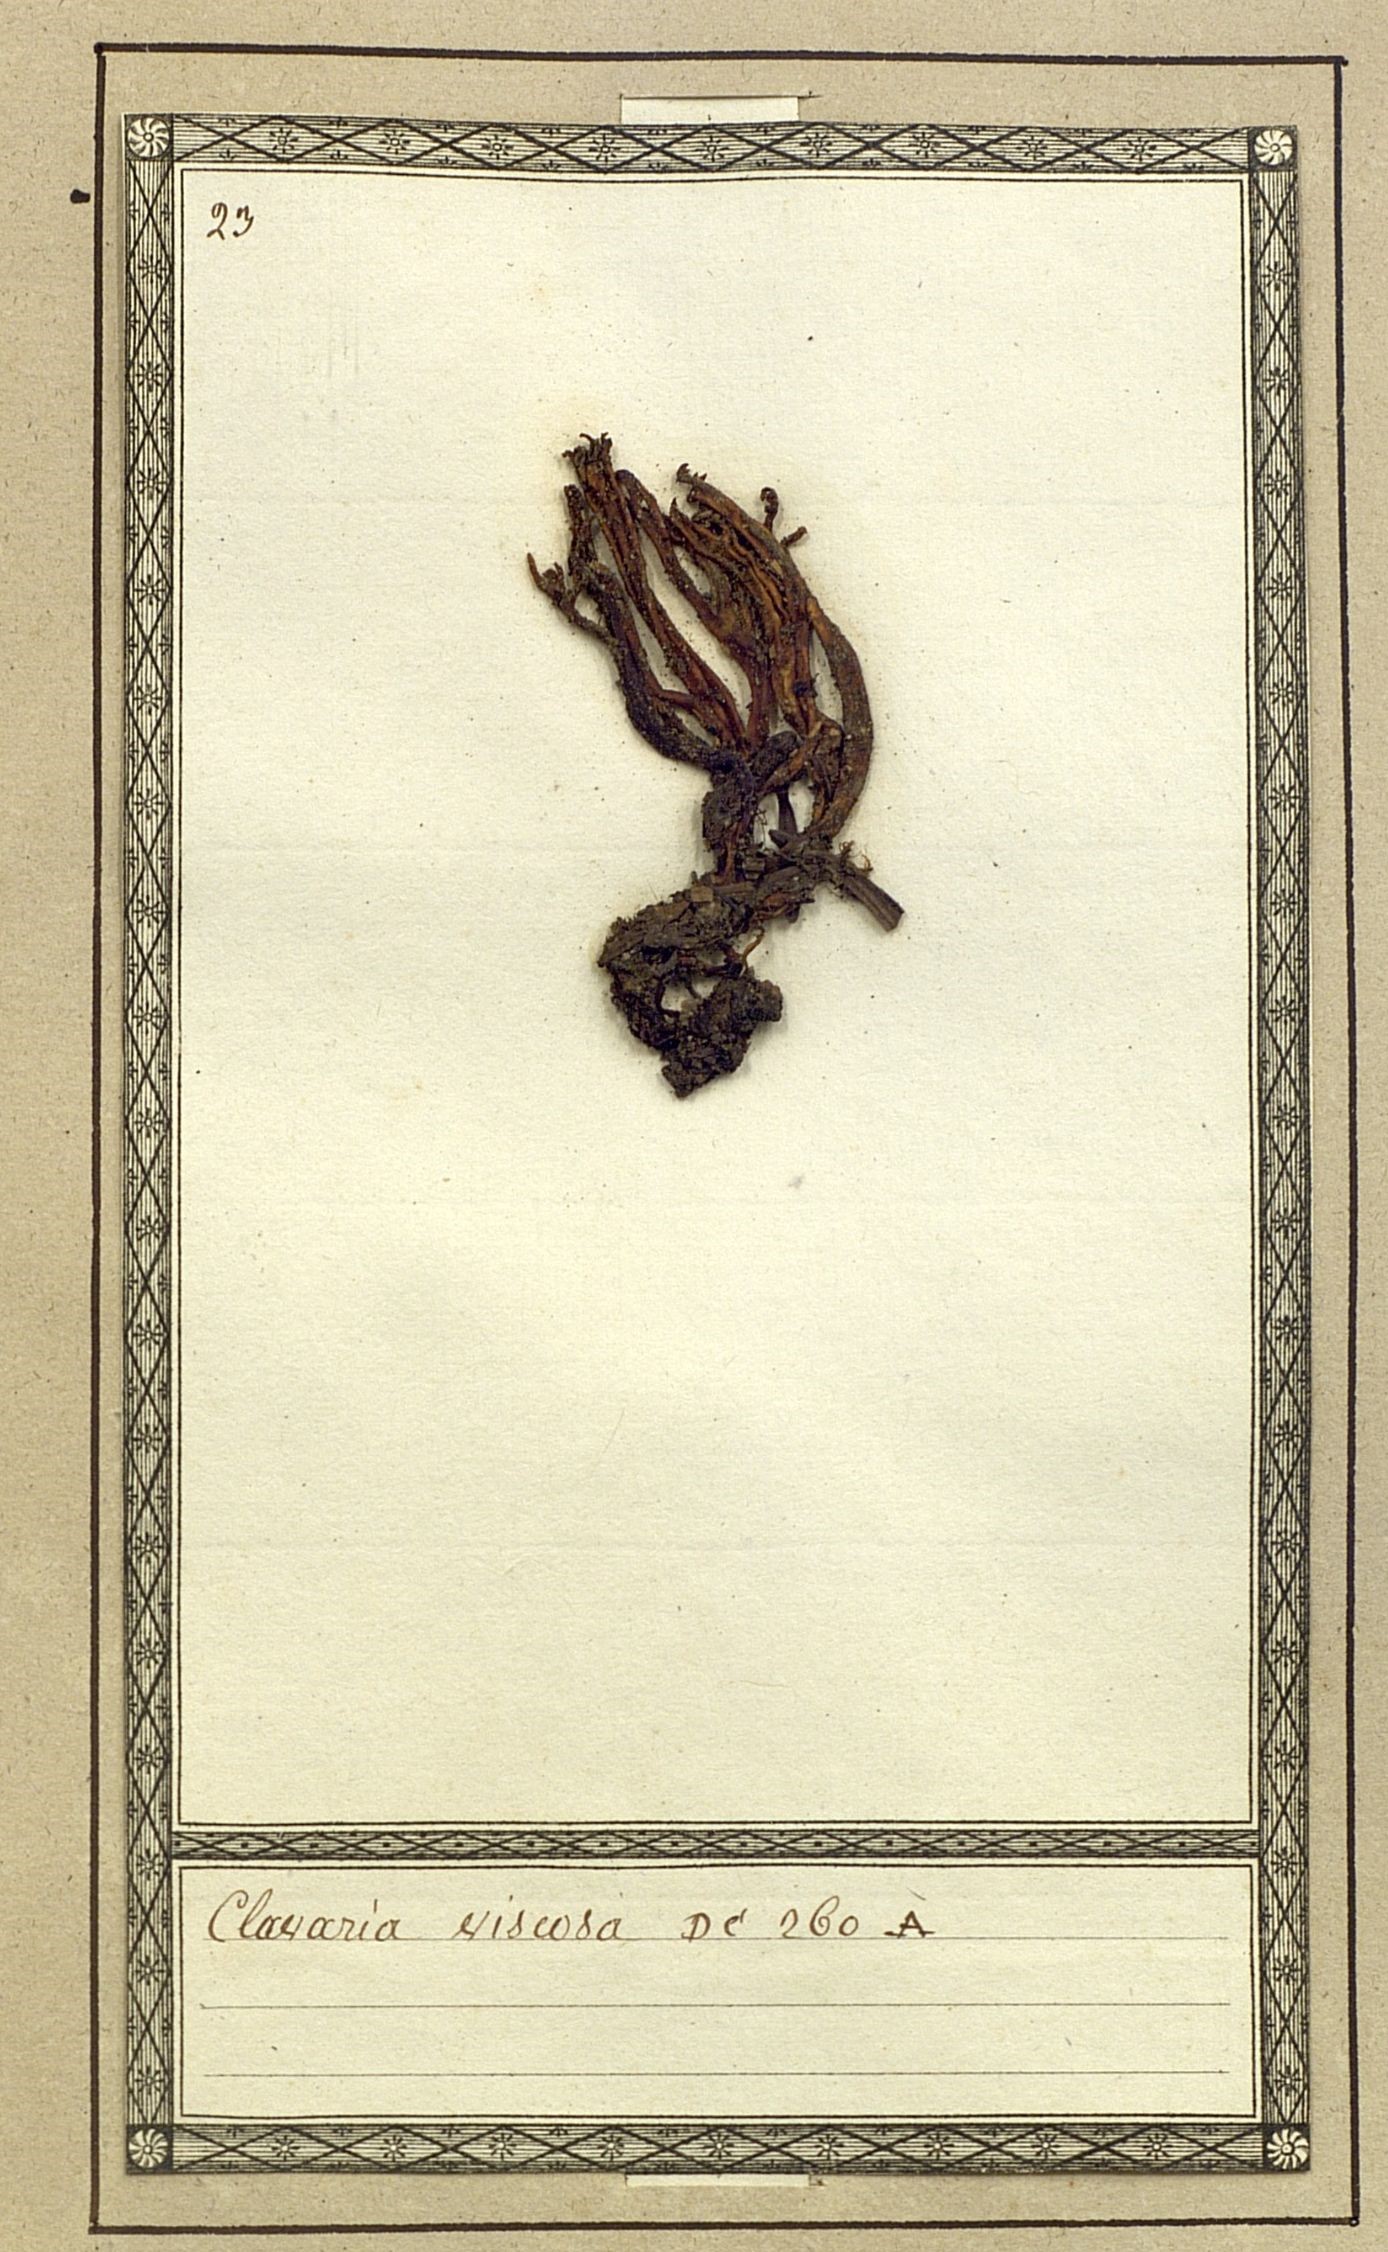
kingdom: Fungi
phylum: Basidiomycota
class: Dacrymycetes
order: Dacrymycetales
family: Dacrymycetaceae
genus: Calocera
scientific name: Calocera viscosa
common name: Yellow stagshorn
